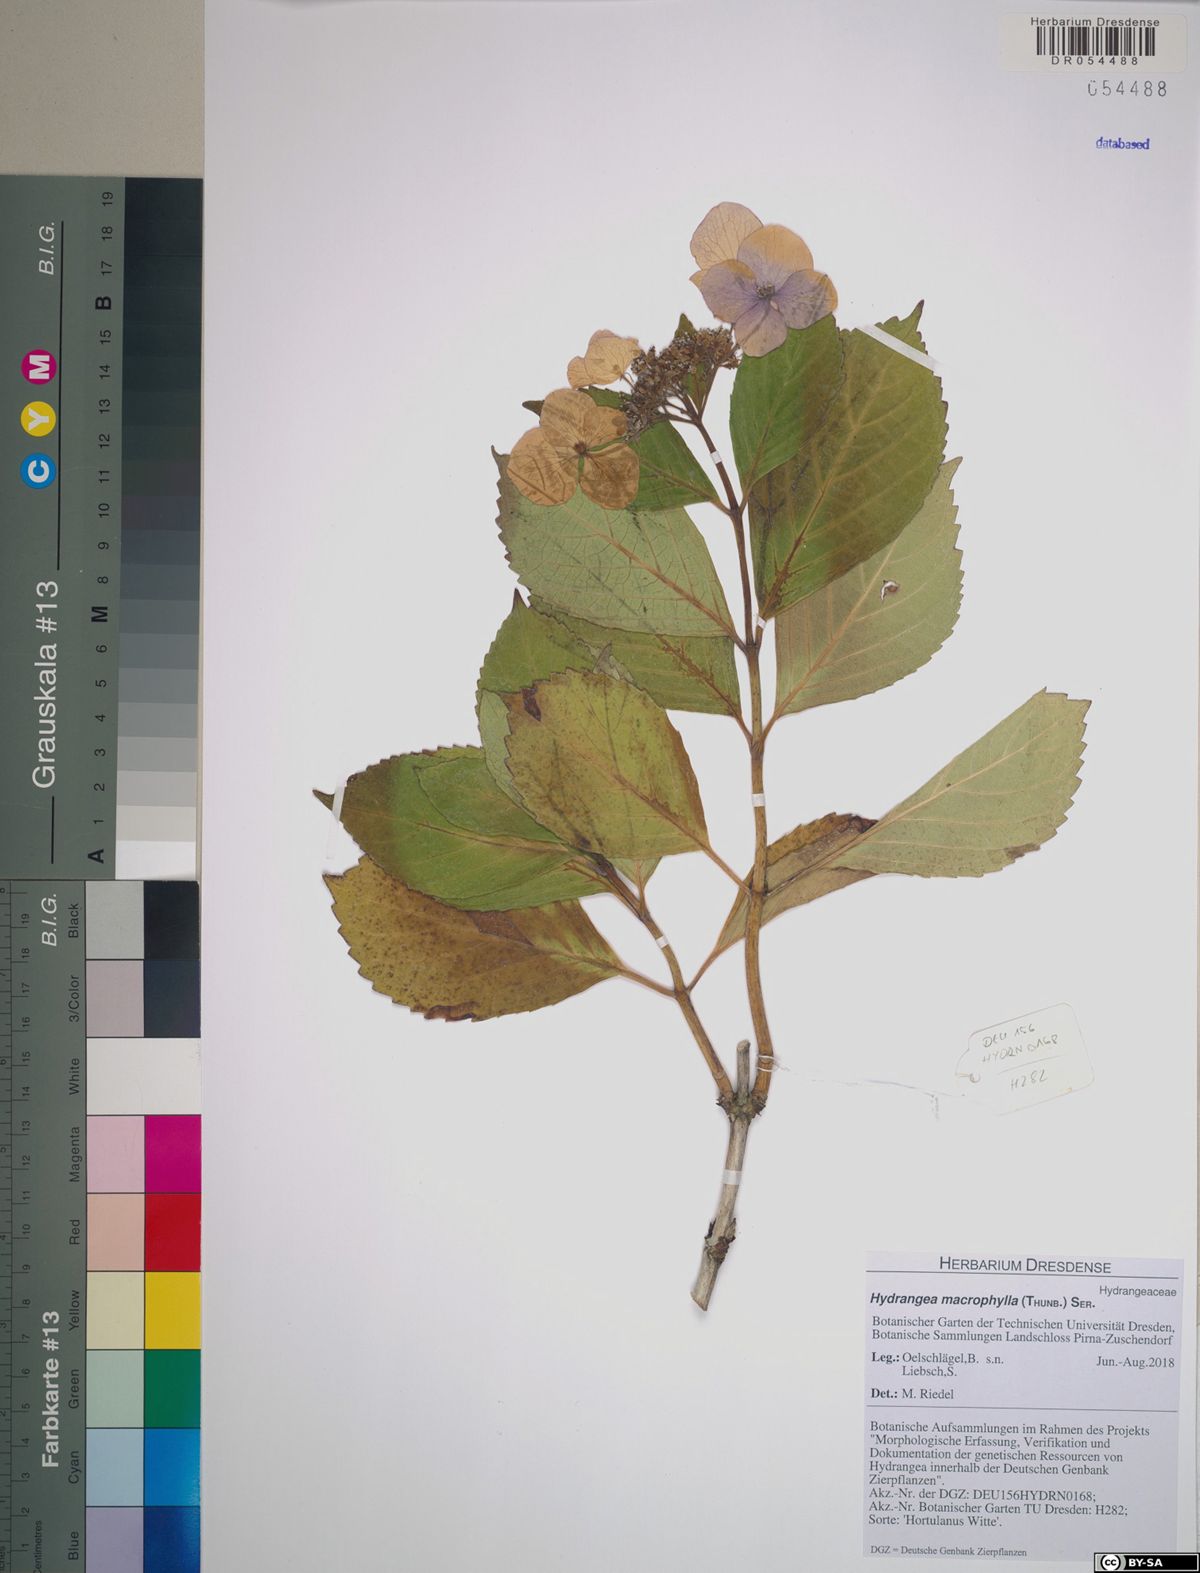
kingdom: Plantae
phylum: Tracheophyta
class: Magnoliopsida
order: Cornales
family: Hydrangeaceae
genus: Hydrangea
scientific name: Hydrangea macrophylla
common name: Hydrangea
